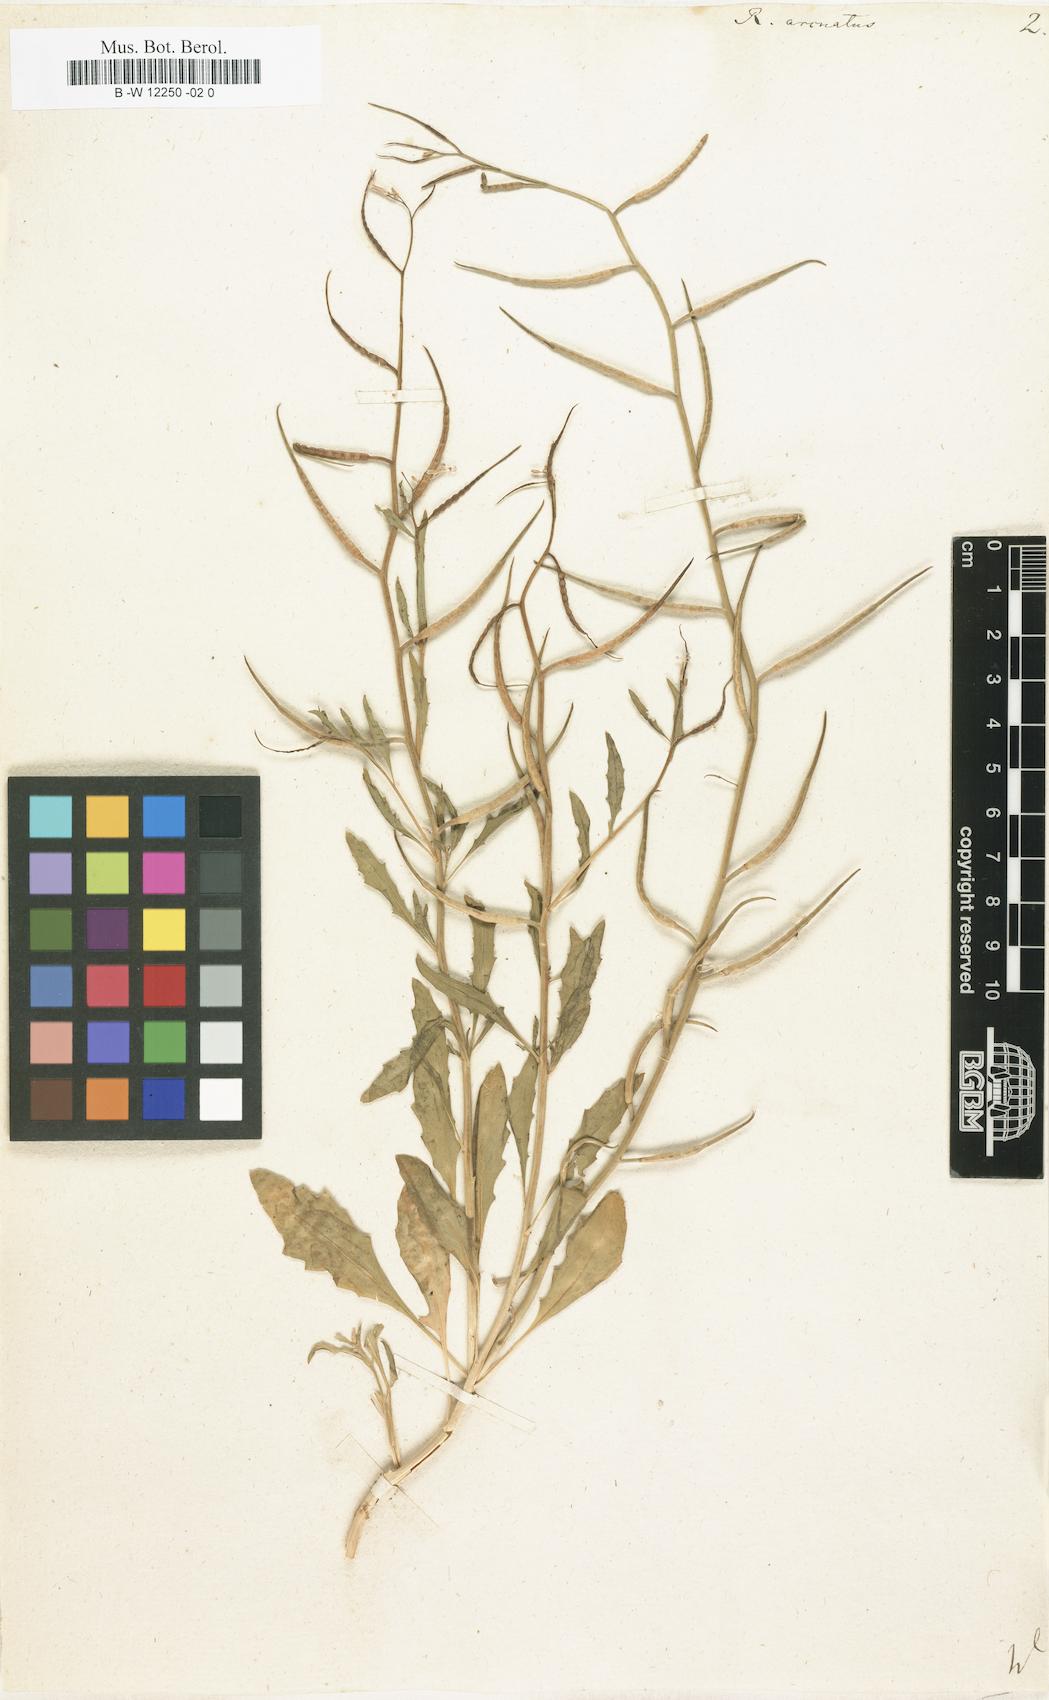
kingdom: Plantae
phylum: Tracheophyta
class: Magnoliopsida
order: Brassicales
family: Brassicaceae
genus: Chorispora
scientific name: Chorispora tenella
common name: Crossflower
